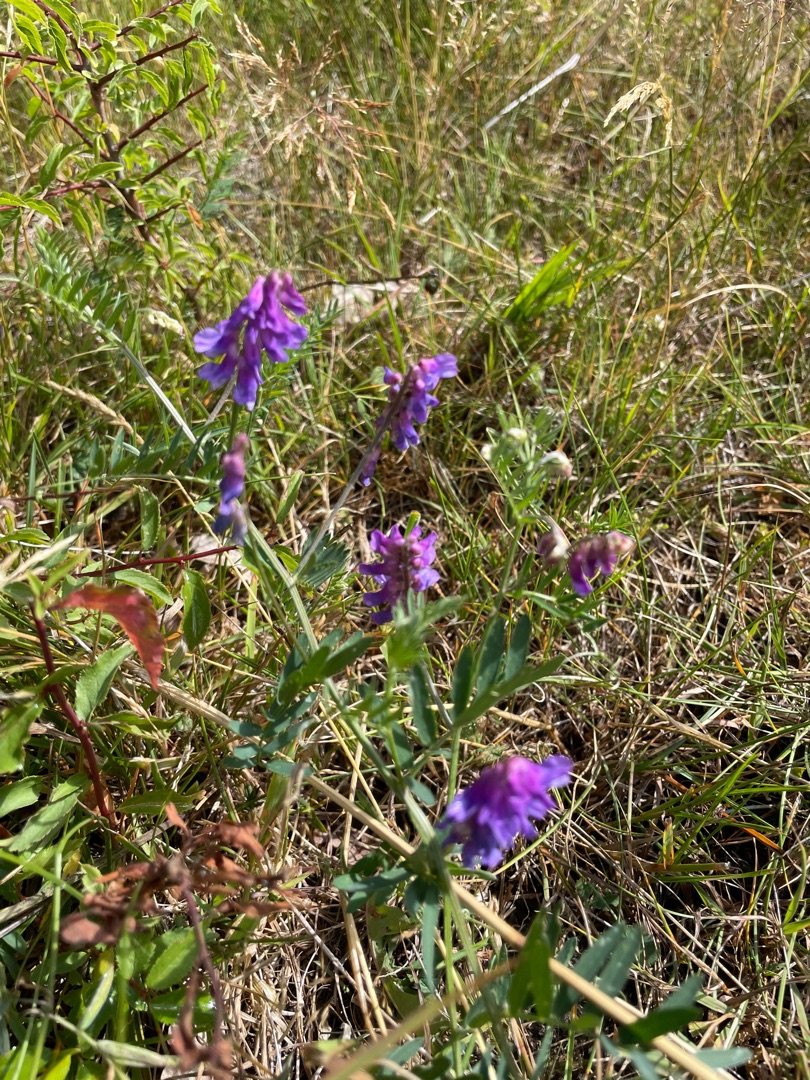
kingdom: Plantae
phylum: Tracheophyta
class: Magnoliopsida
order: Fabales
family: Fabaceae
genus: Vicia
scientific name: Vicia cracca
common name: Muse-vikke
